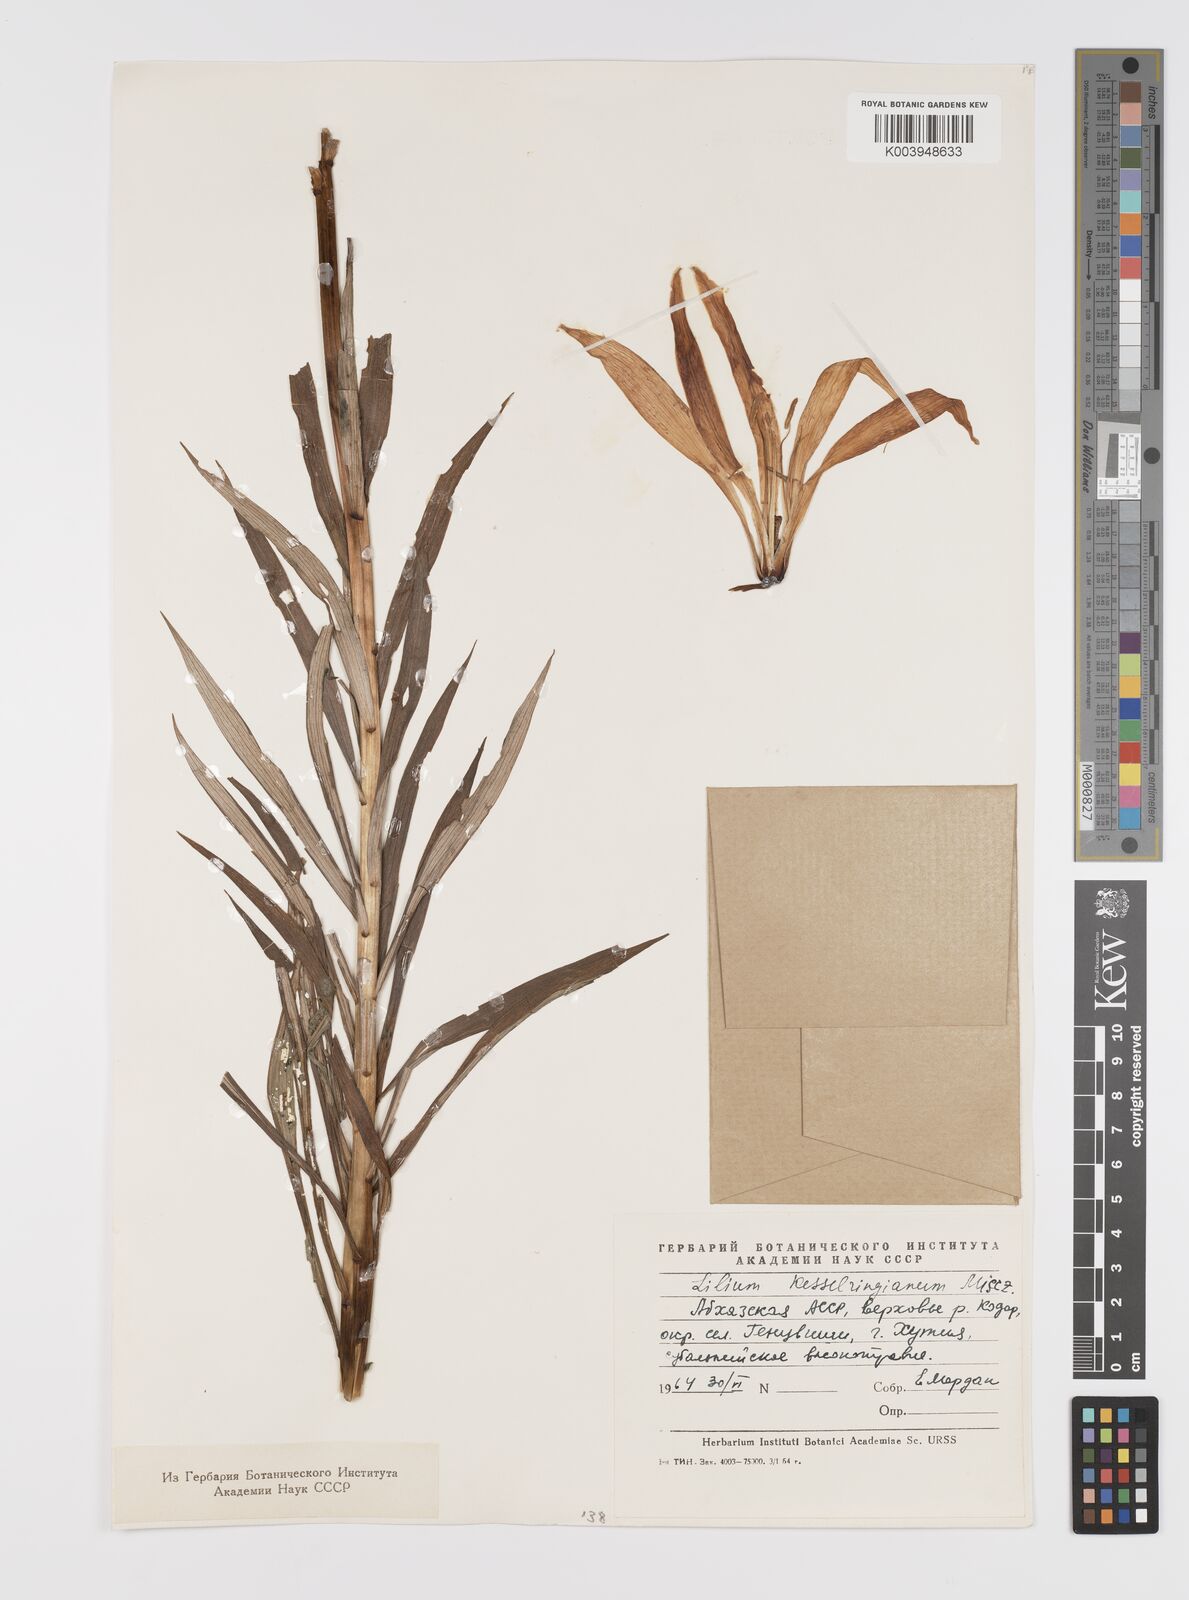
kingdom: Plantae
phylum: Tracheophyta
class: Liliopsida
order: Liliales
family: Liliaceae
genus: Lilium
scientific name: Lilium kesselringianum
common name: Kesselring lily
